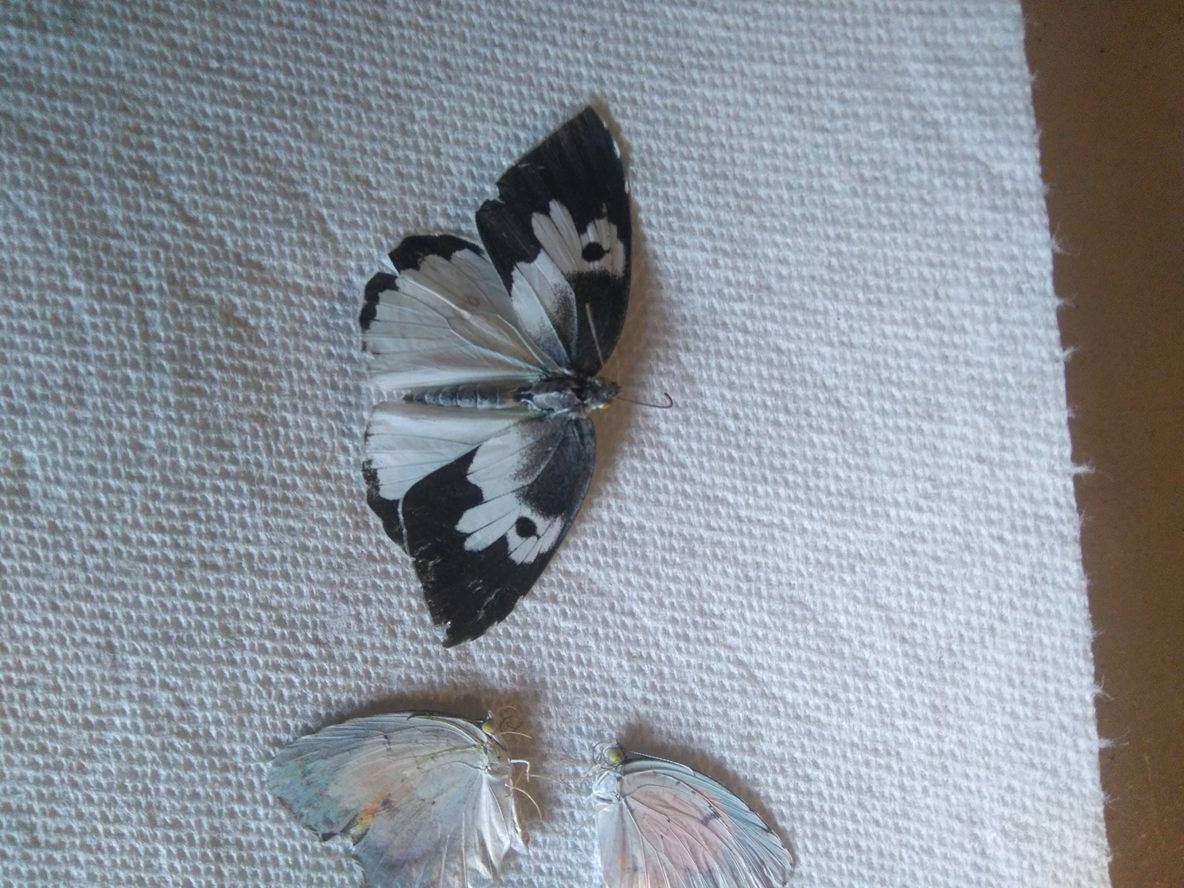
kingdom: Animalia
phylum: Arthropoda
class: Insecta
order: Lepidoptera
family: Pieridae
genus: Zerene
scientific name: Zerene cesonia
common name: Southern Dogface
